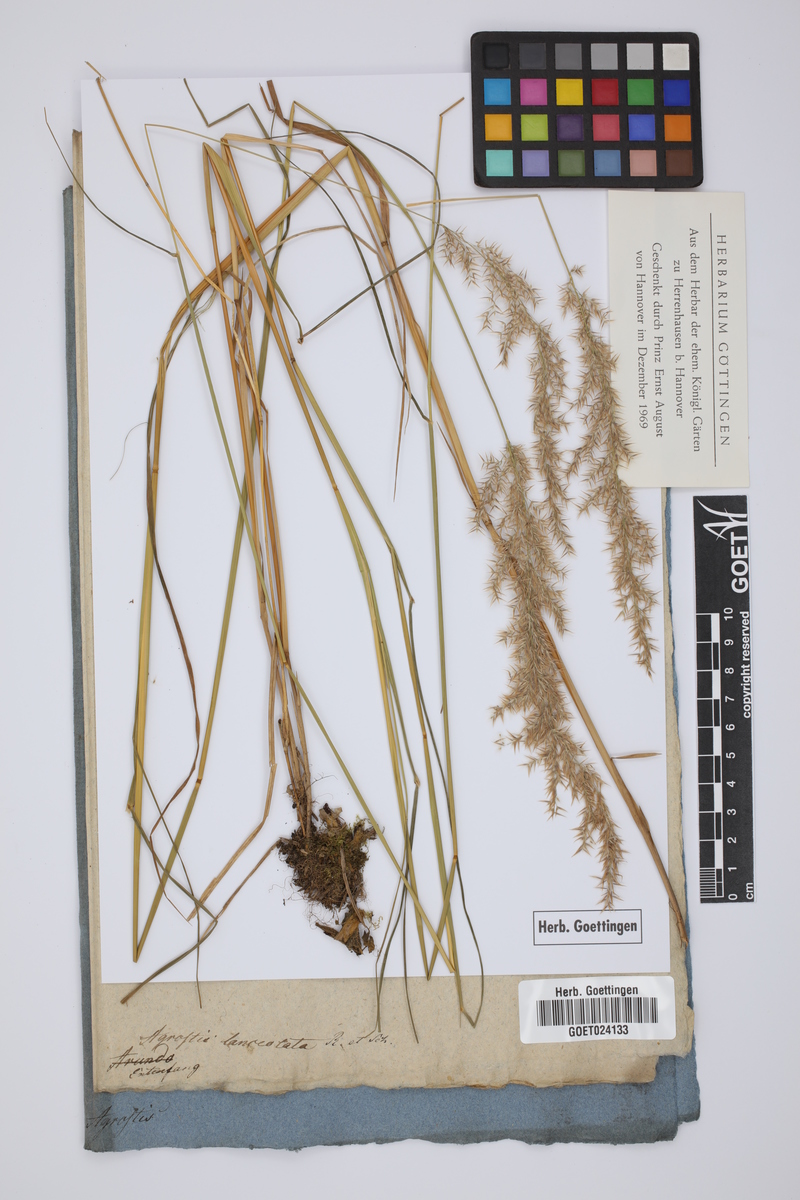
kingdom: Plantae
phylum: Tracheophyta
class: Liliopsida
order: Poales
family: Poaceae
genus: Calamagrostis
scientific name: Calamagrostis canescens
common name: Purple small-reed
